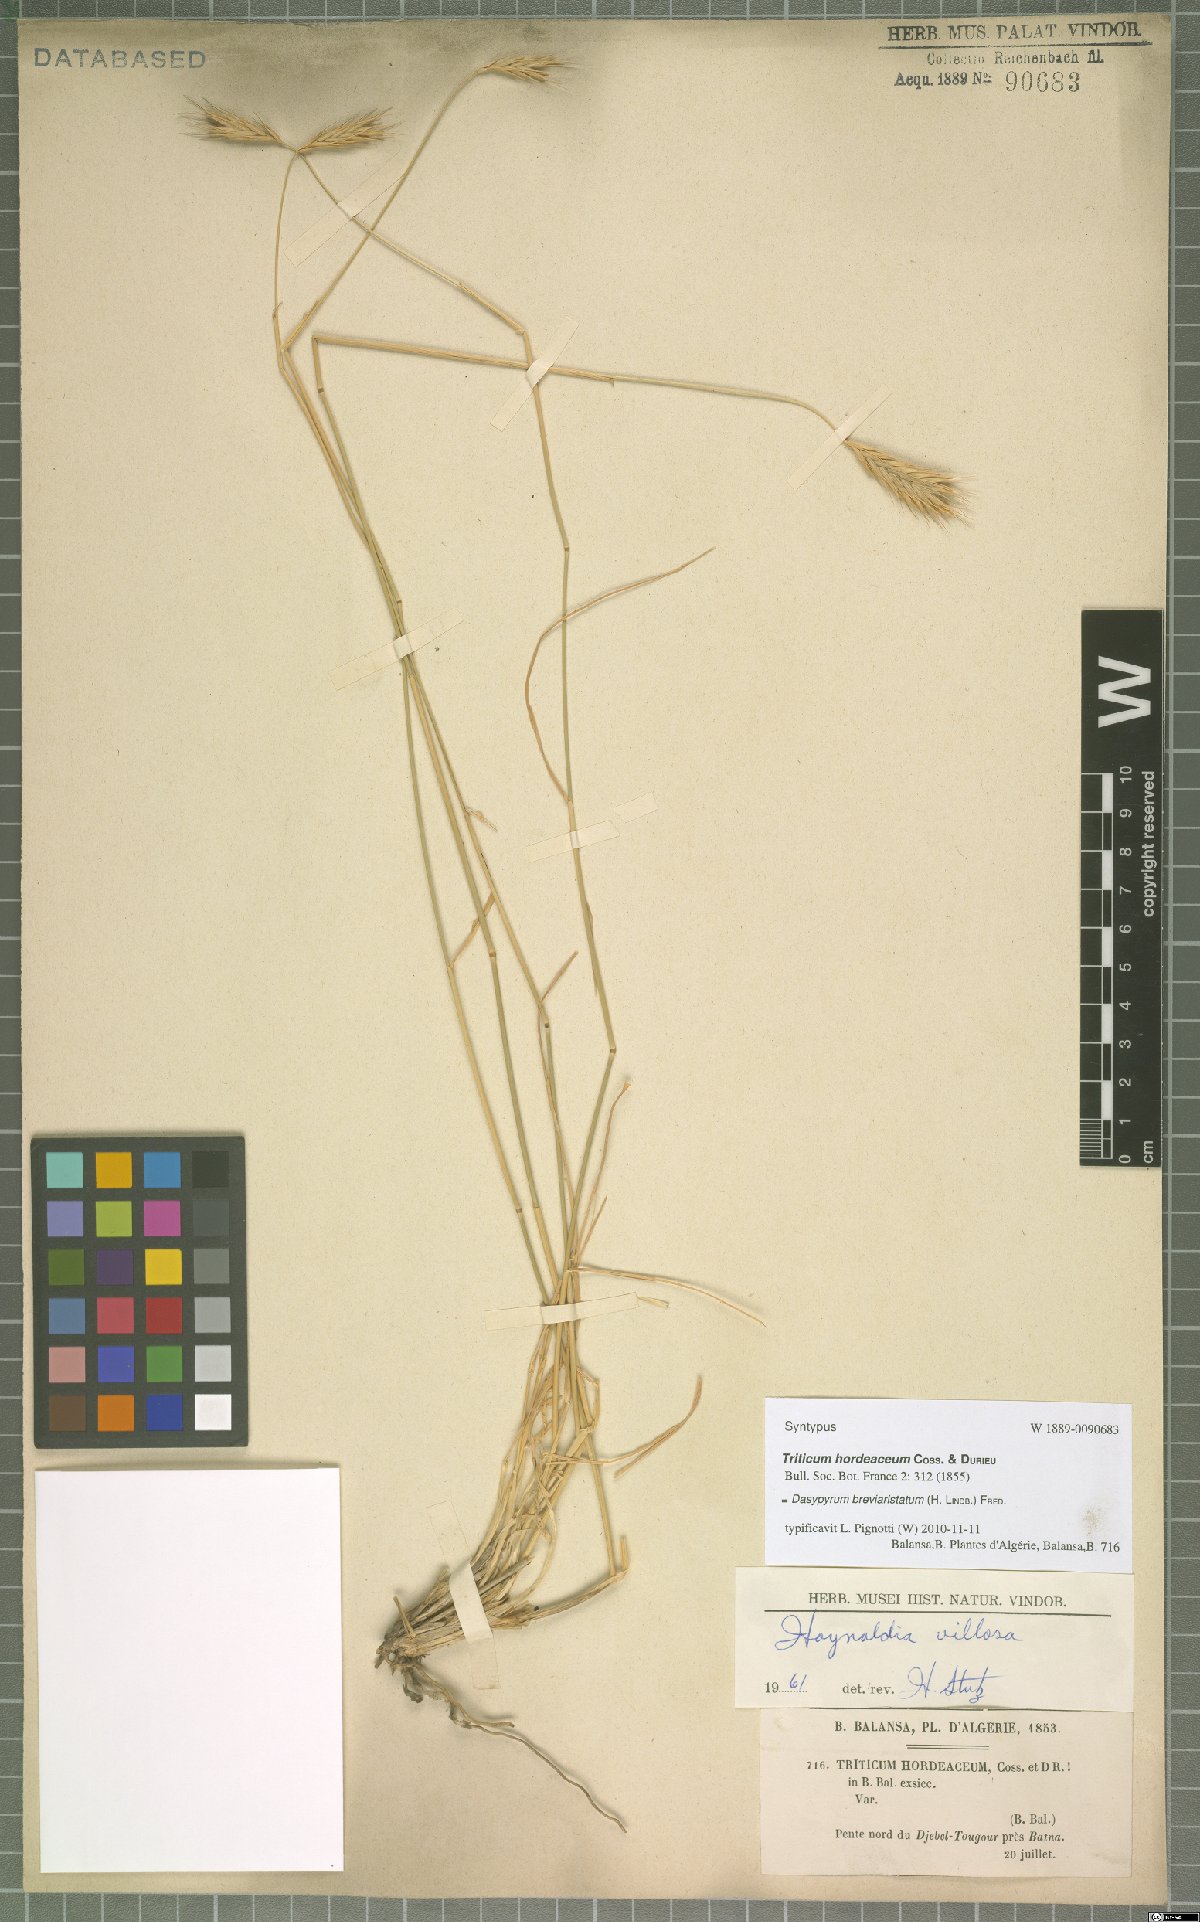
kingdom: Plantae
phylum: Tracheophyta
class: Liliopsida
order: Poales
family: Poaceae
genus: Dasypyrum
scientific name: Dasypyrum hordeaceum
